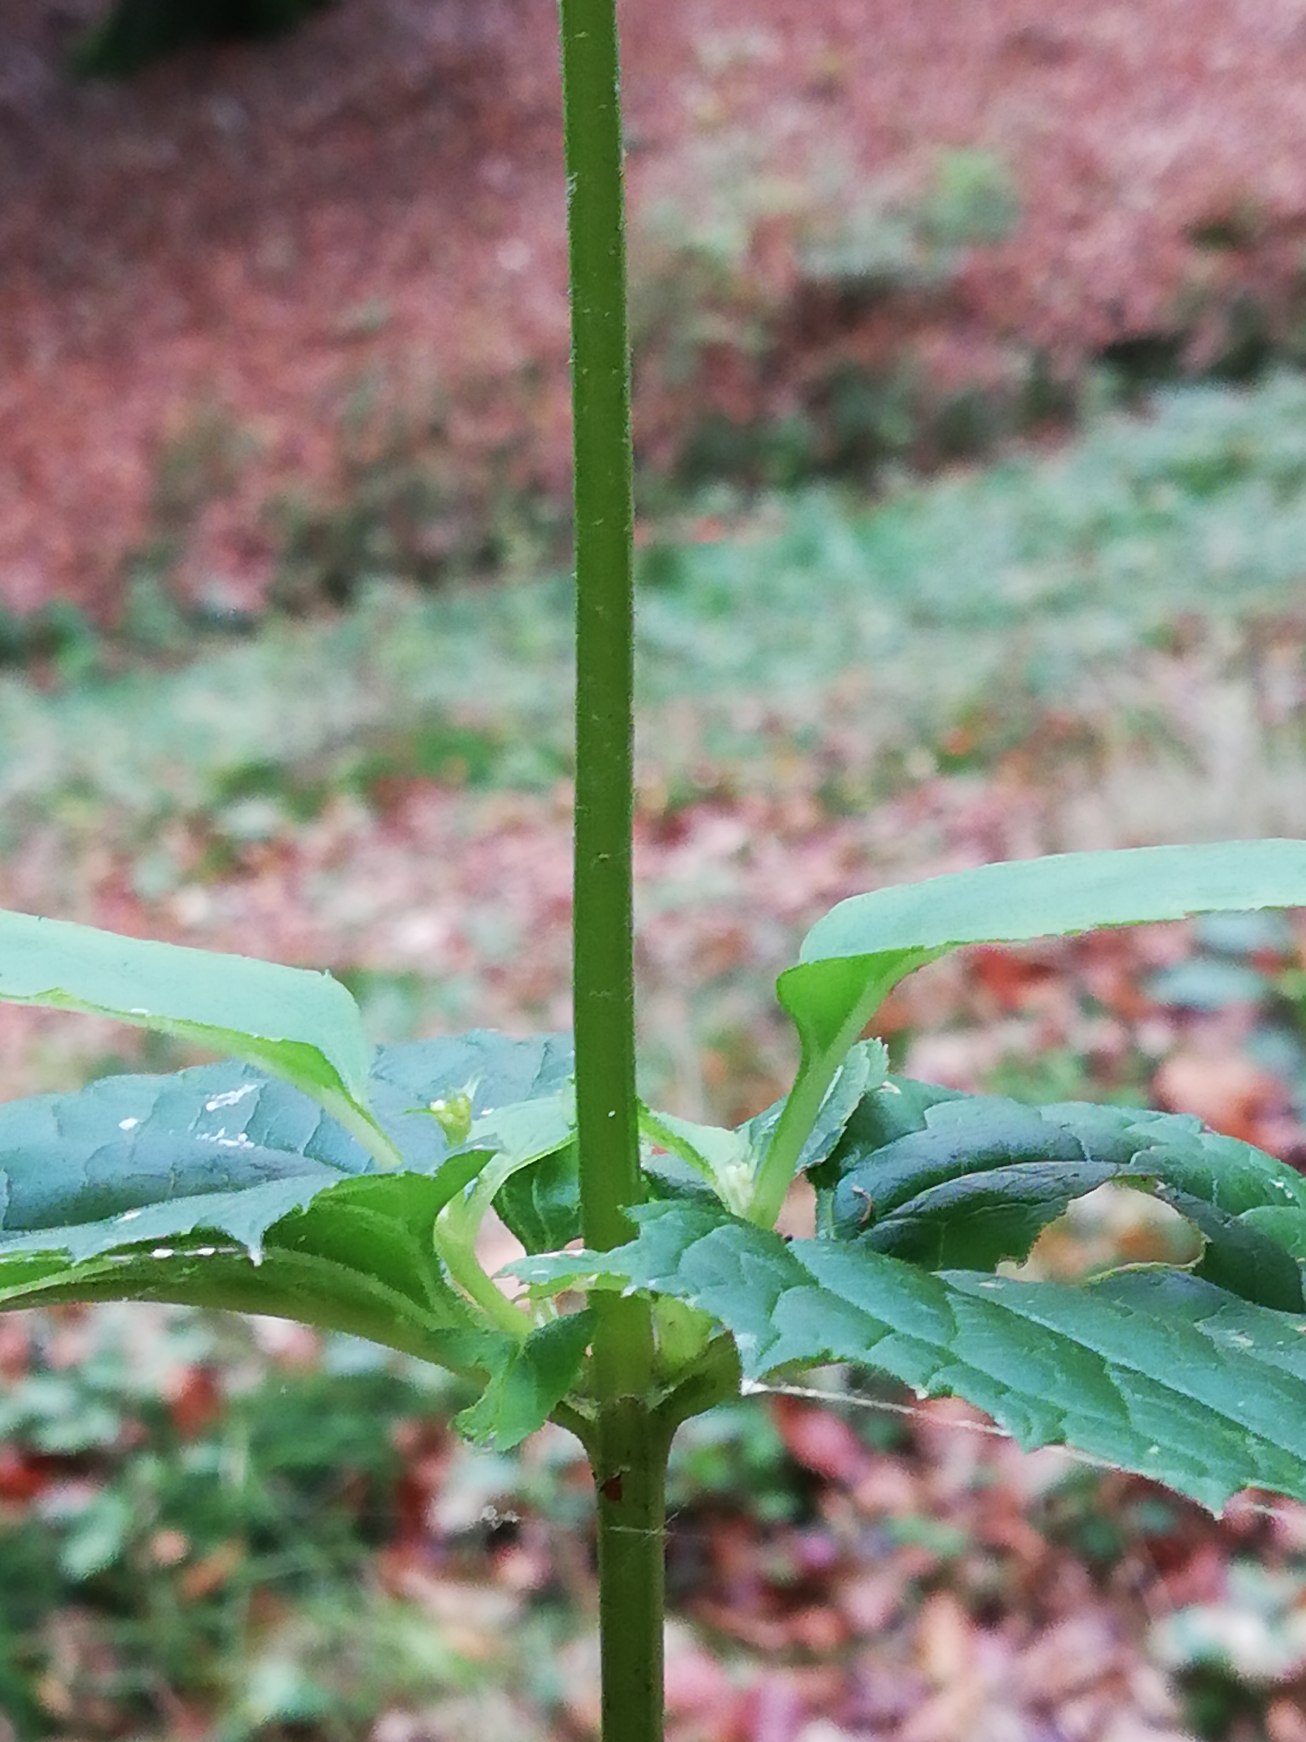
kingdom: Plantae
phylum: Tracheophyta
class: Magnoliopsida
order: Lamiales
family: Scrophulariaceae
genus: Scrophularia
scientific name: Scrophularia nodosa
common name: Knoldet brunrod
